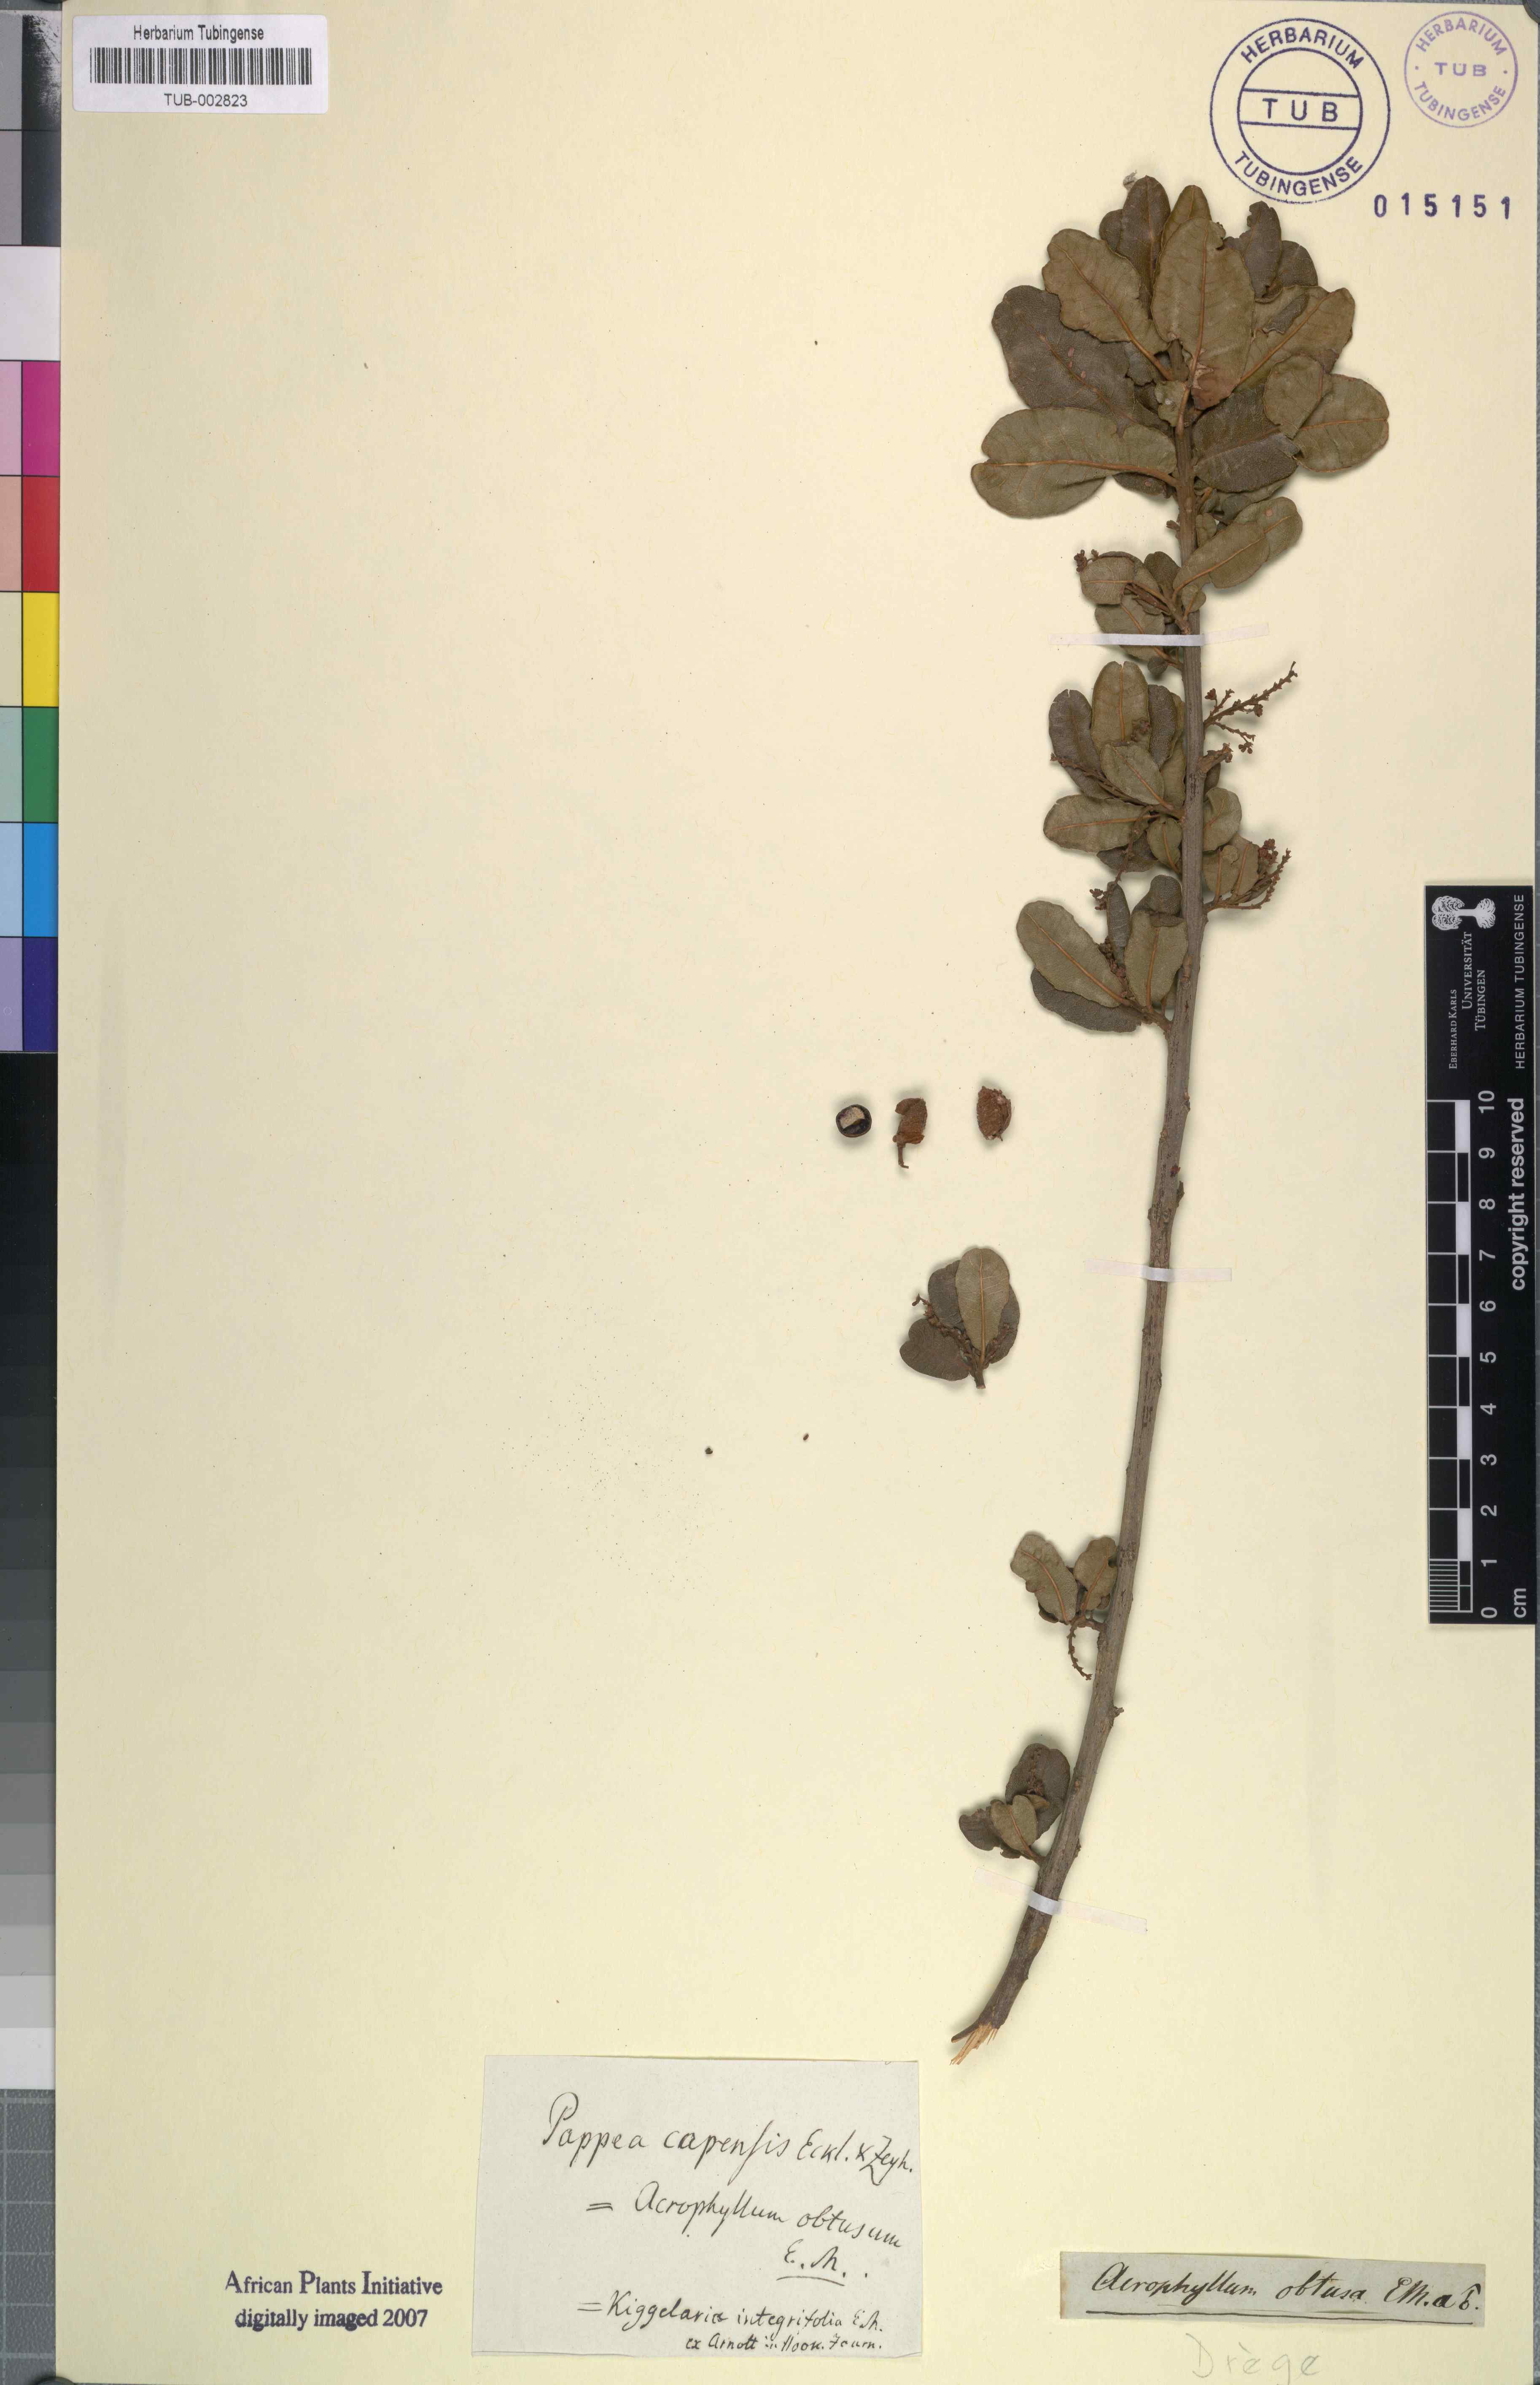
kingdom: Plantae
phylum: Tracheophyta
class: Magnoliopsida
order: Malpighiales
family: Achariaceae
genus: Kiggelaria
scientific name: Kiggelaria africana
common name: Wild peach
